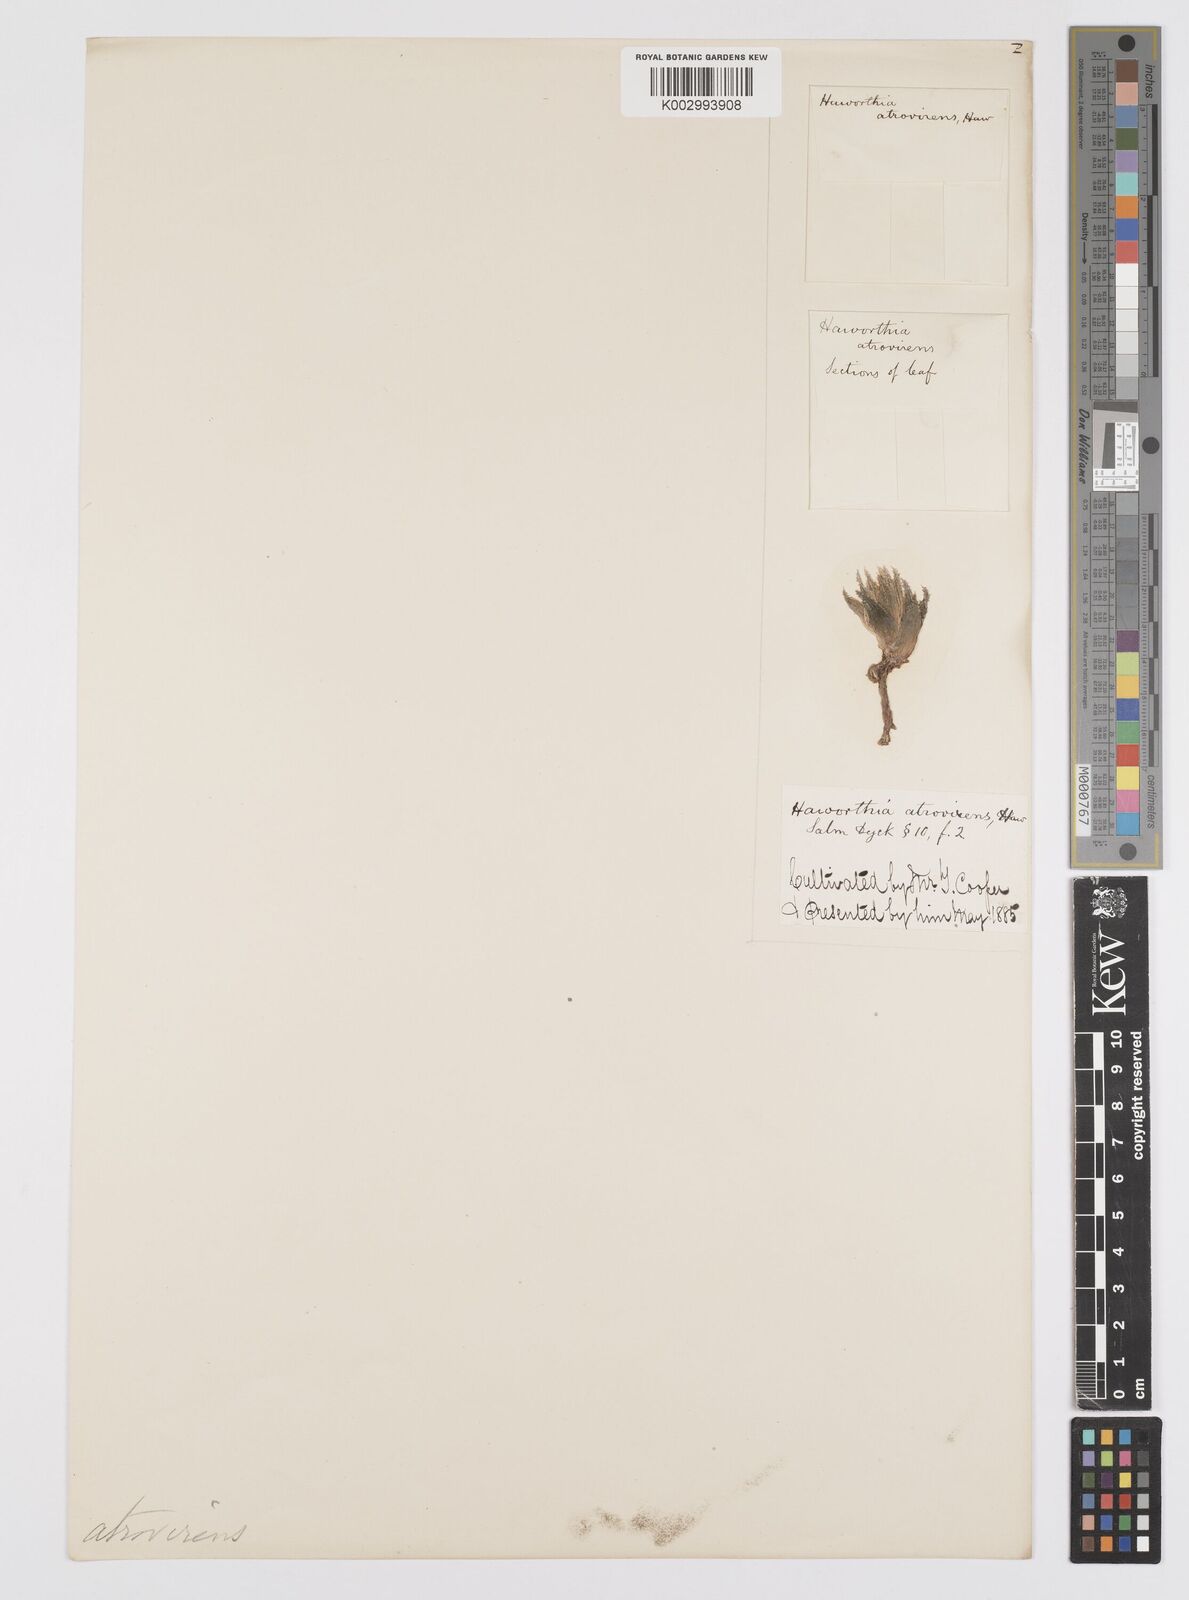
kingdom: Plantae
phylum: Tracheophyta
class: Liliopsida
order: Asparagales
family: Asphodelaceae
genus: Haworthia
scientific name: Haworthia herbacea
